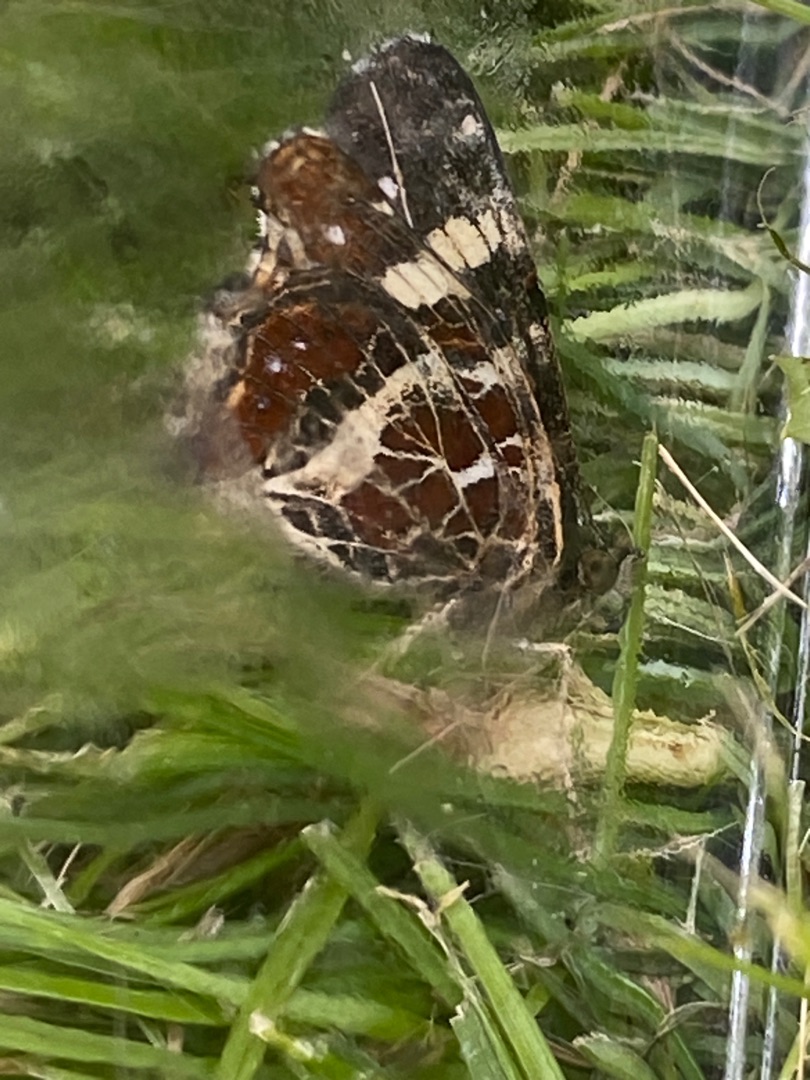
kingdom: Animalia
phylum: Arthropoda
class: Insecta
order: Lepidoptera
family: Nymphalidae
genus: Araschnia
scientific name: Araschnia levana
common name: Nældesommerfugl
